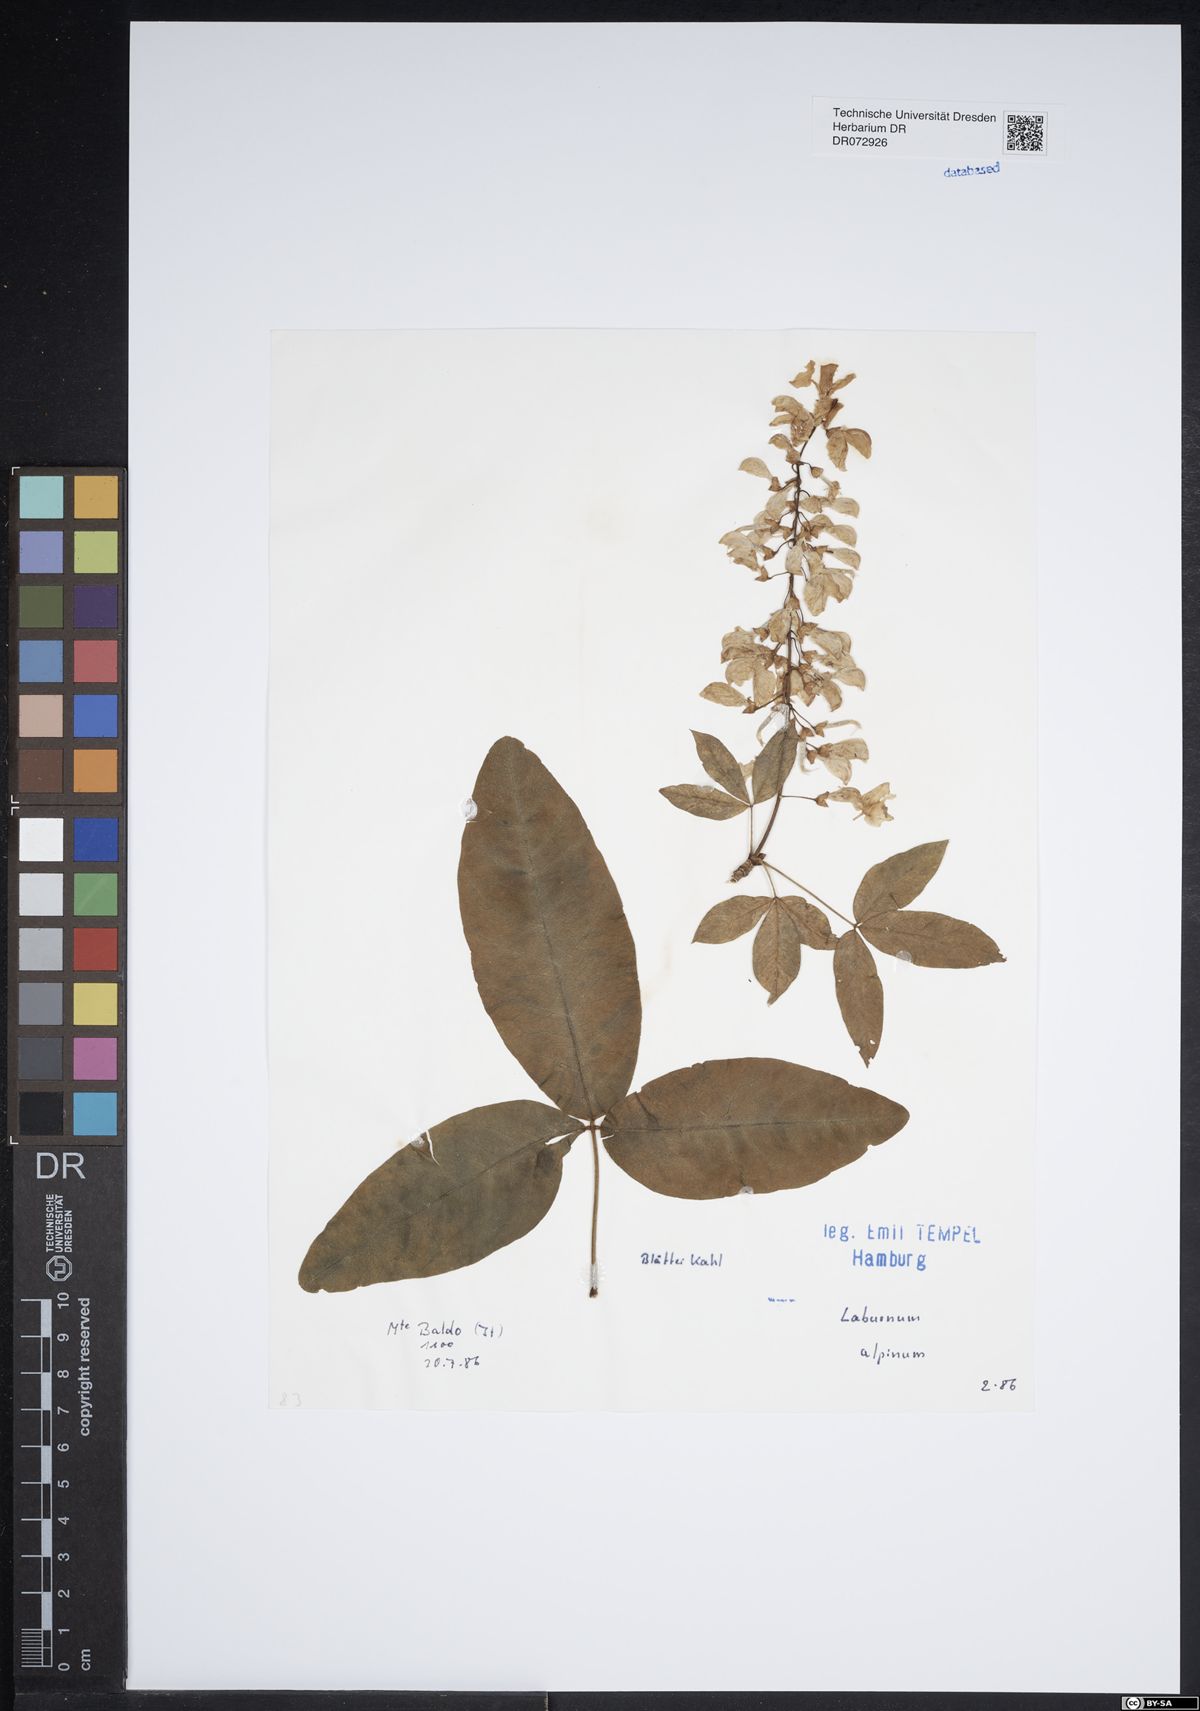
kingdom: Plantae
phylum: Tracheophyta
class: Magnoliopsida
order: Fabales
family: Fabaceae
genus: Laburnum
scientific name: Laburnum alpinum
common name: Scottish laburnum
